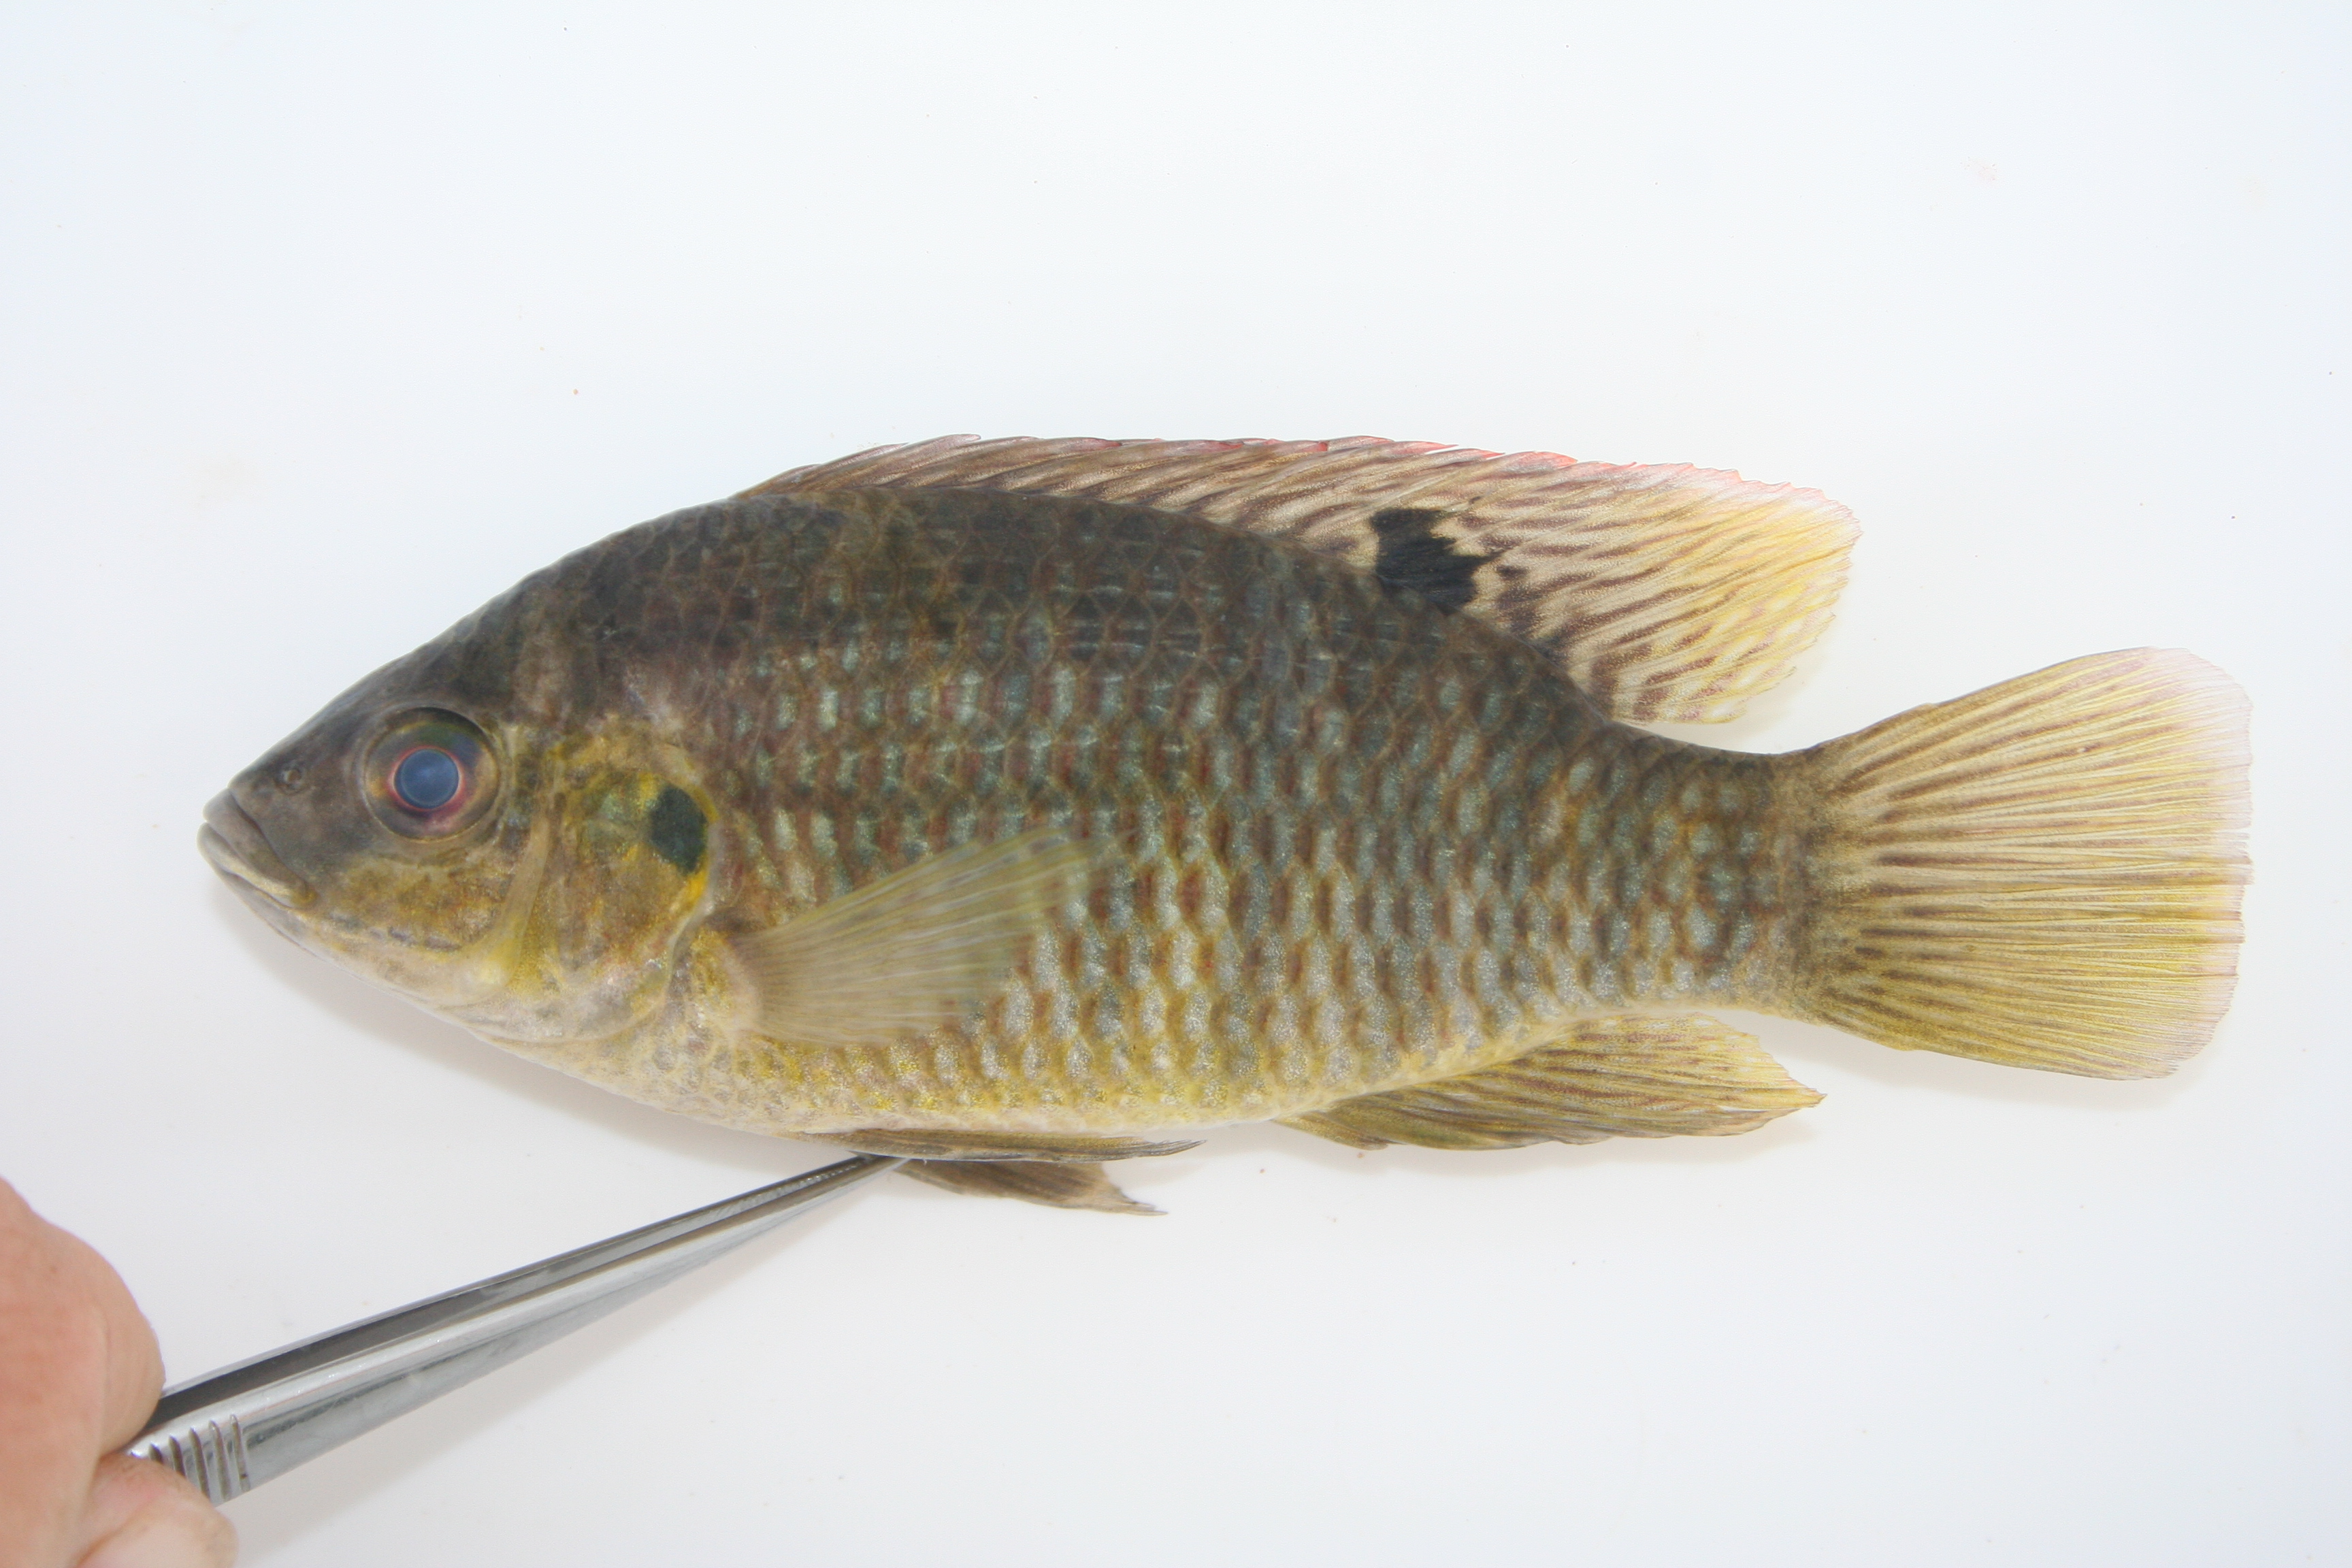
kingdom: Animalia
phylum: Chordata
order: Perciformes
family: Cichlidae
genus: Tilapia
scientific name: Tilapia sparrmanii
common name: Banded tilapia
